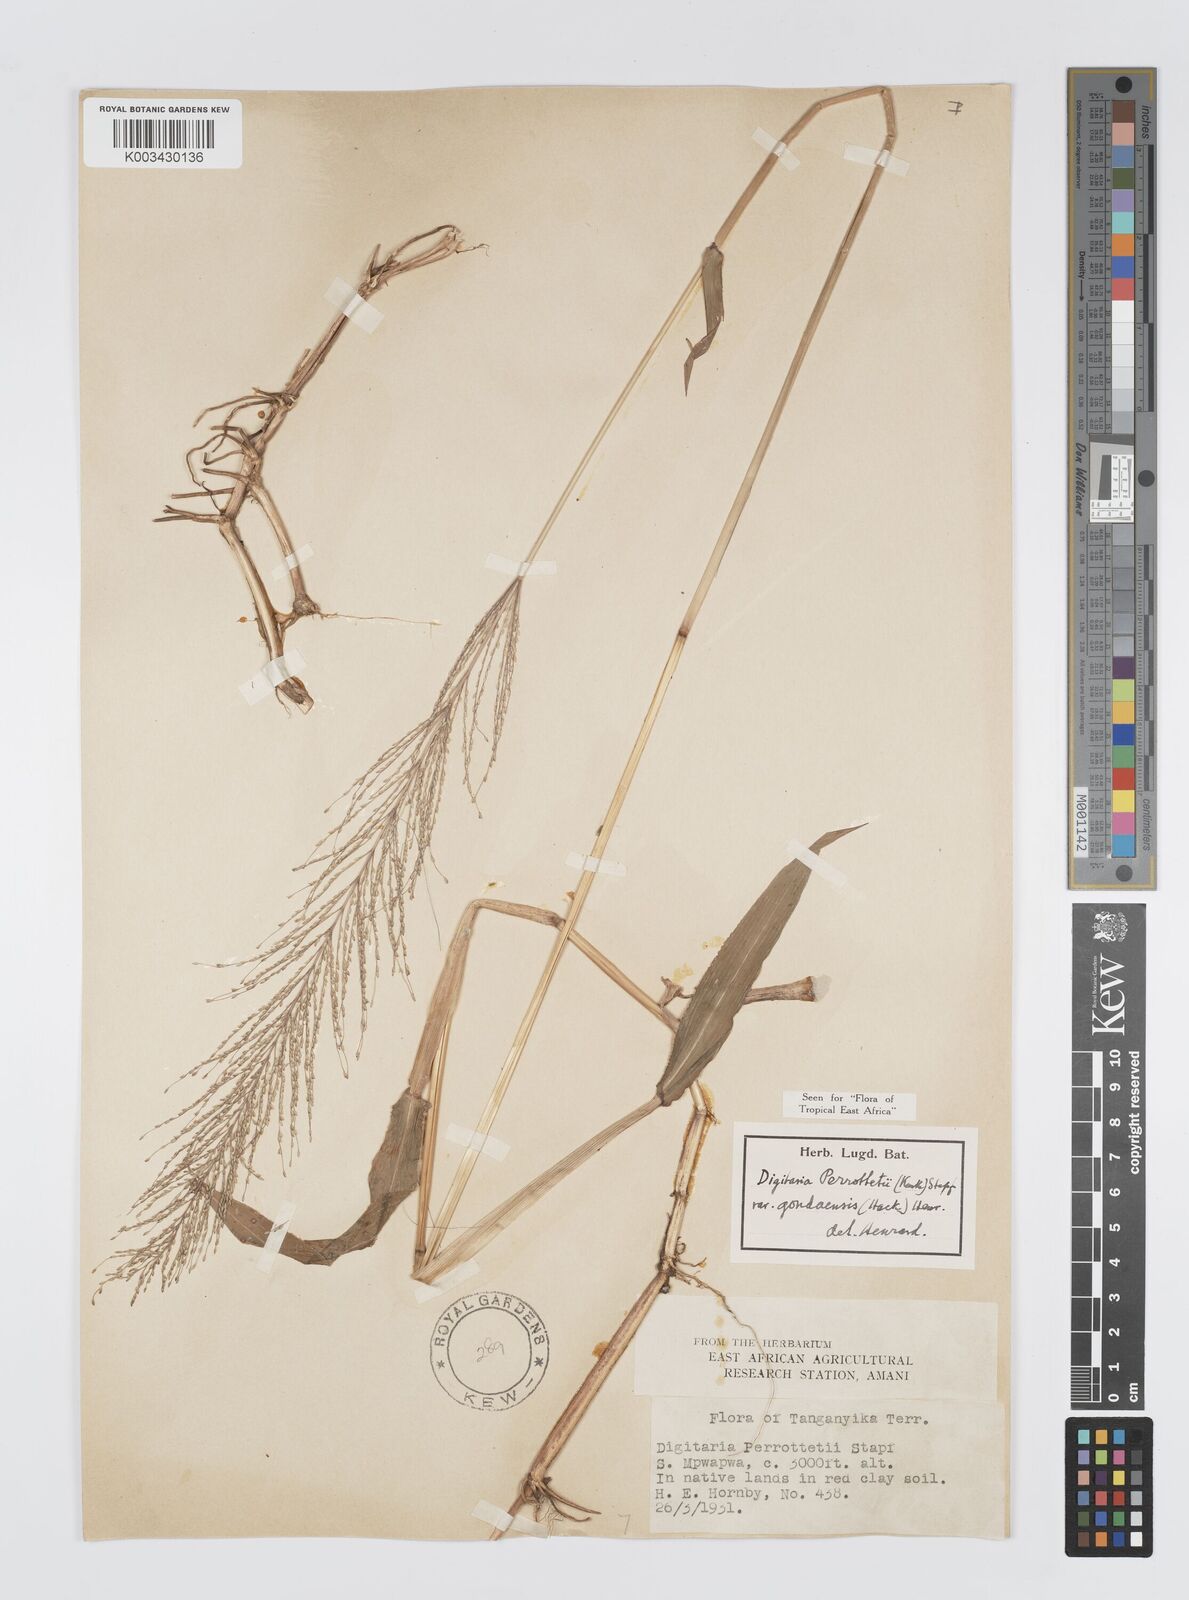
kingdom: Plantae
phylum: Tracheophyta
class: Liliopsida
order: Poales
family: Poaceae
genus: Digitaria
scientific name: Digitaria perrottetii
